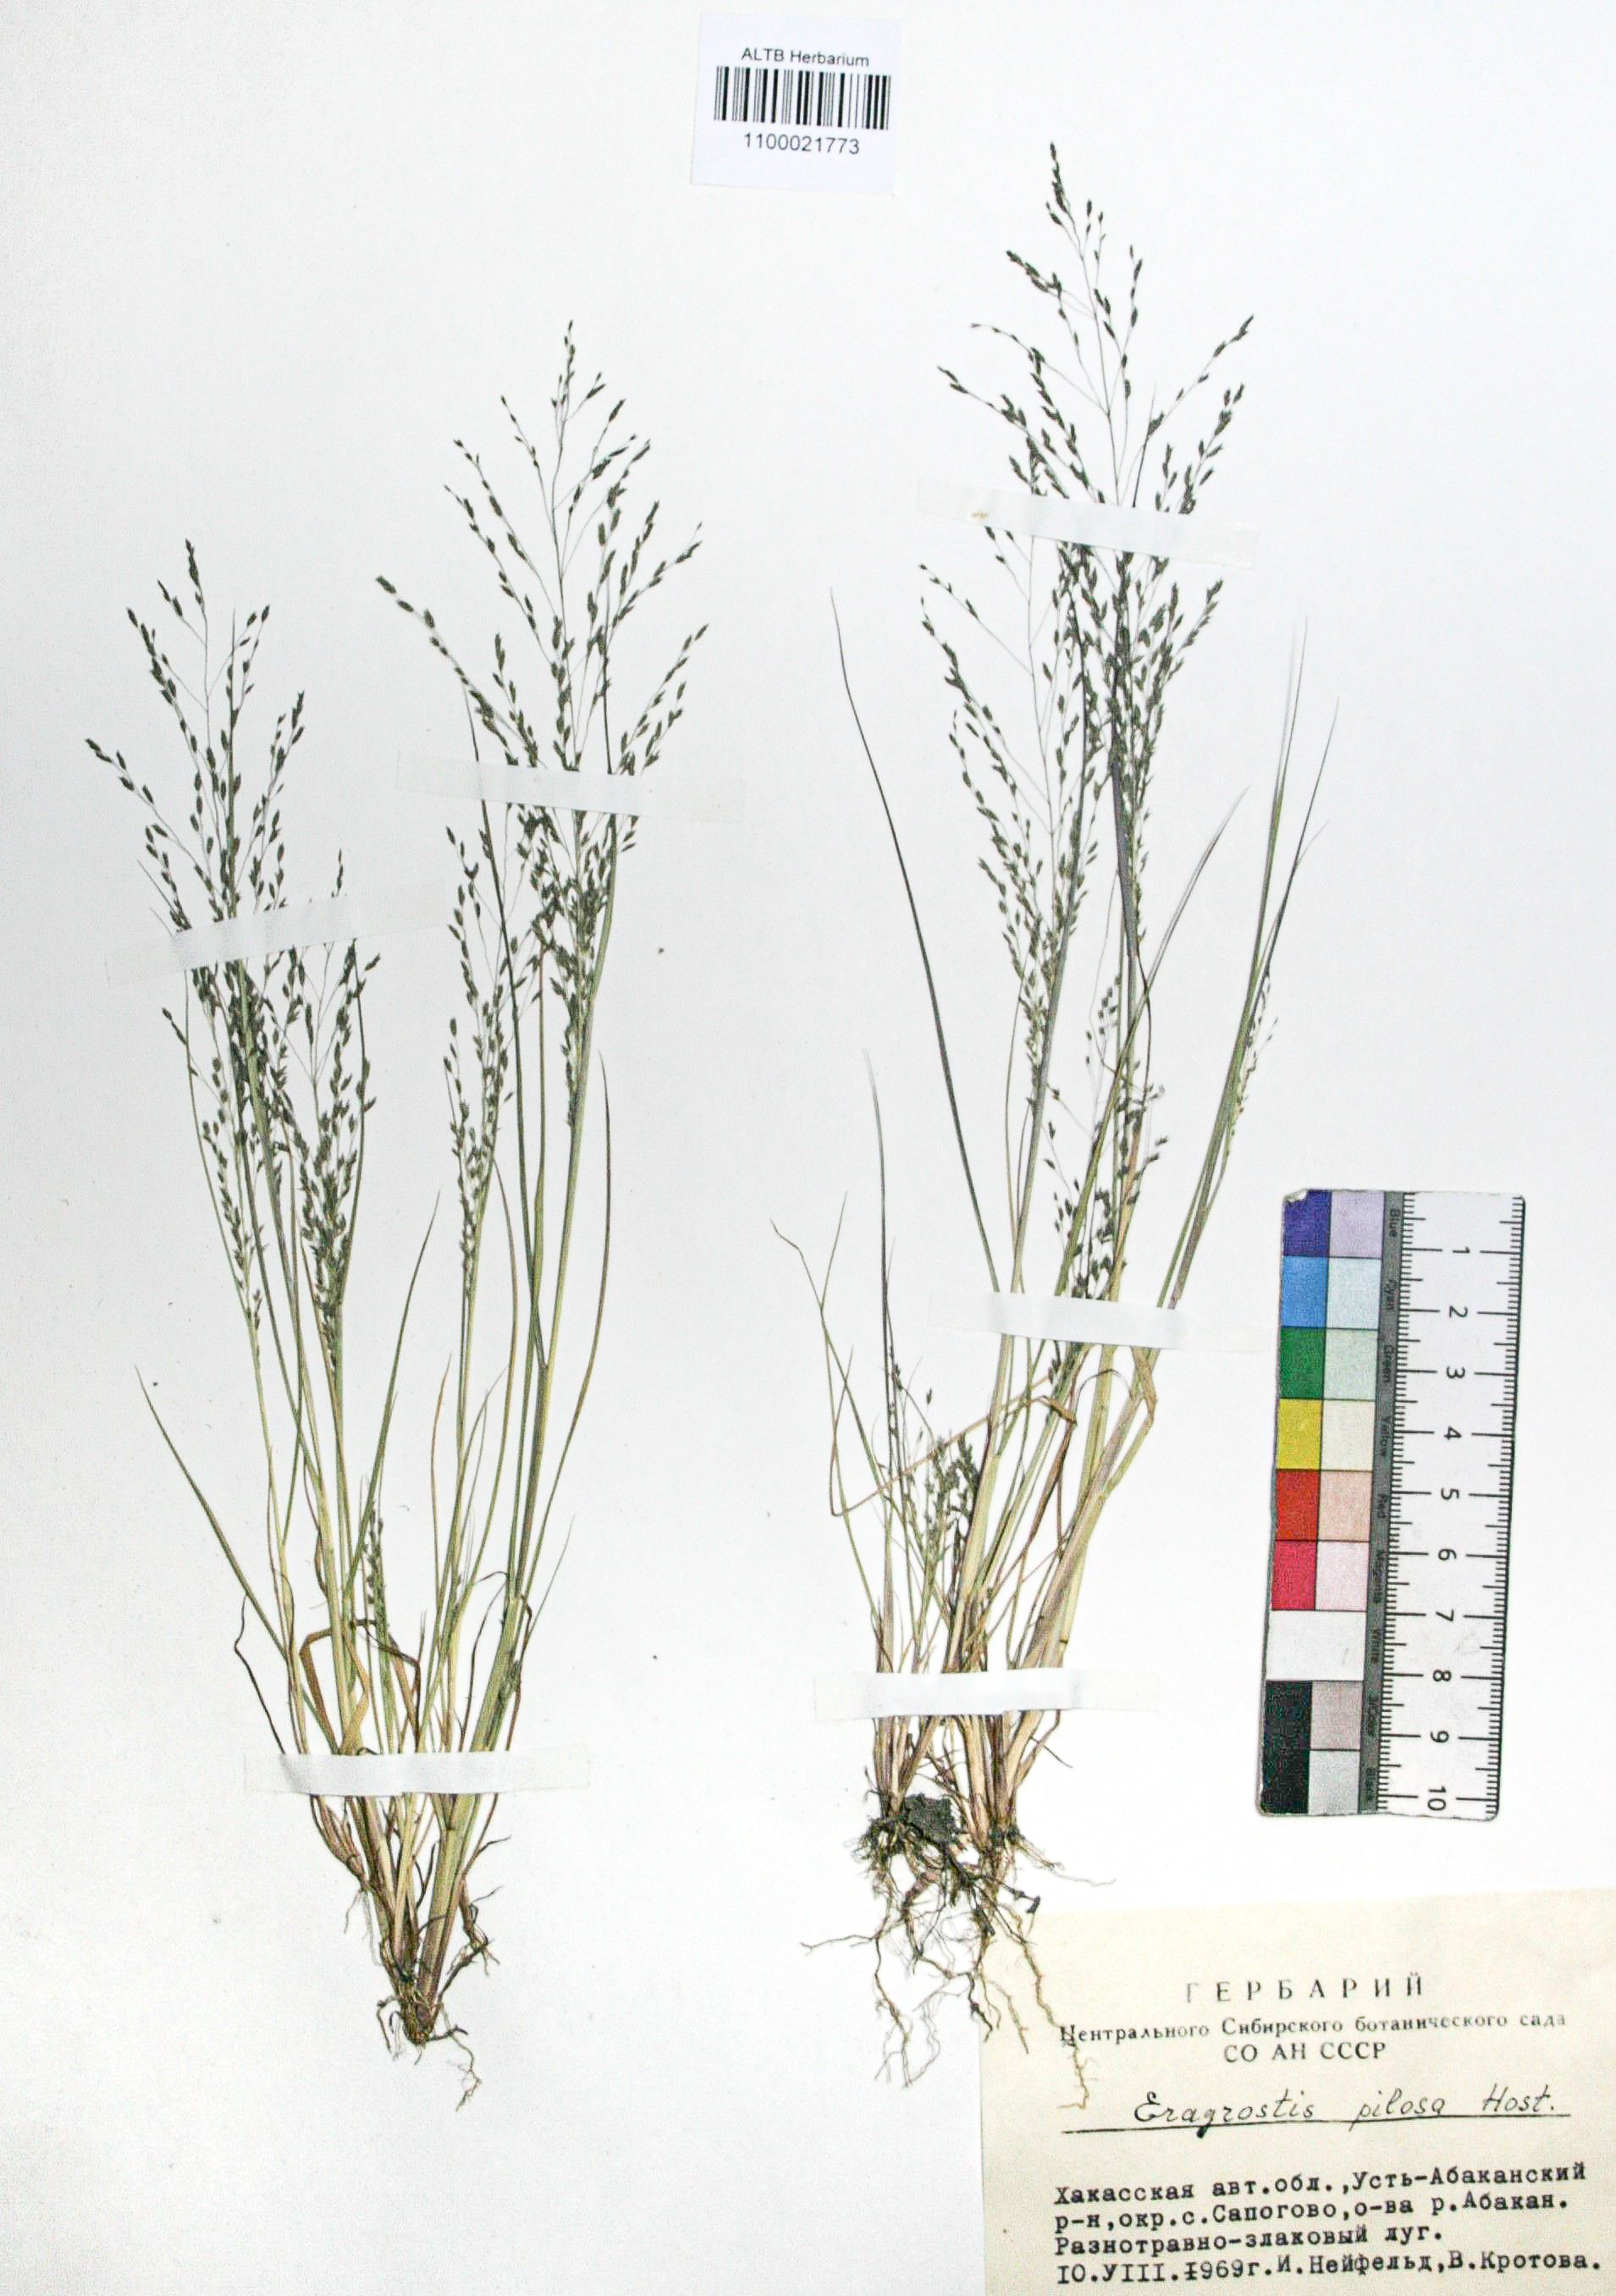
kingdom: Plantae
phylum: Tracheophyta
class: Liliopsida
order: Poales
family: Poaceae
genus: Eragrostis
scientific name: Eragrostis pilosa
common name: Indian lovegrass
